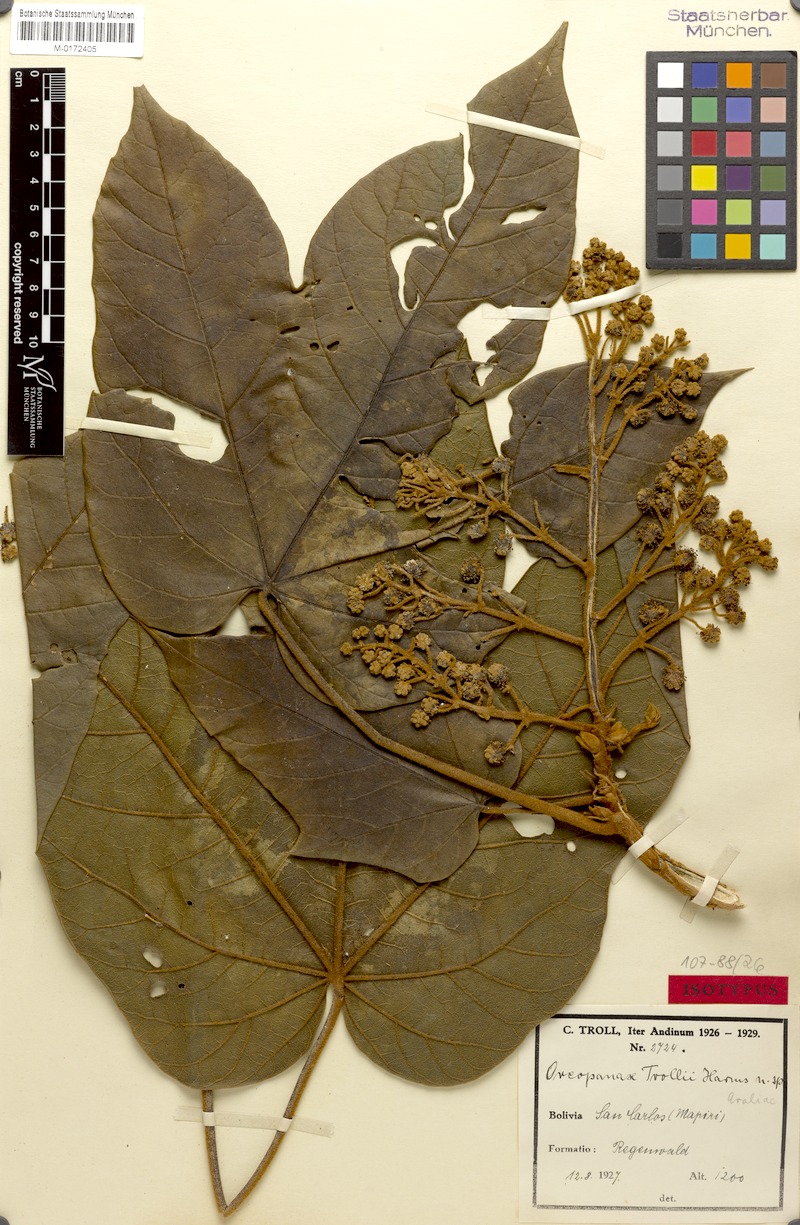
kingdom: Plantae
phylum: Tracheophyta
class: Magnoliopsida
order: Apiales
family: Araliaceae
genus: Oreopanax
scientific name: Oreopanax trollii
